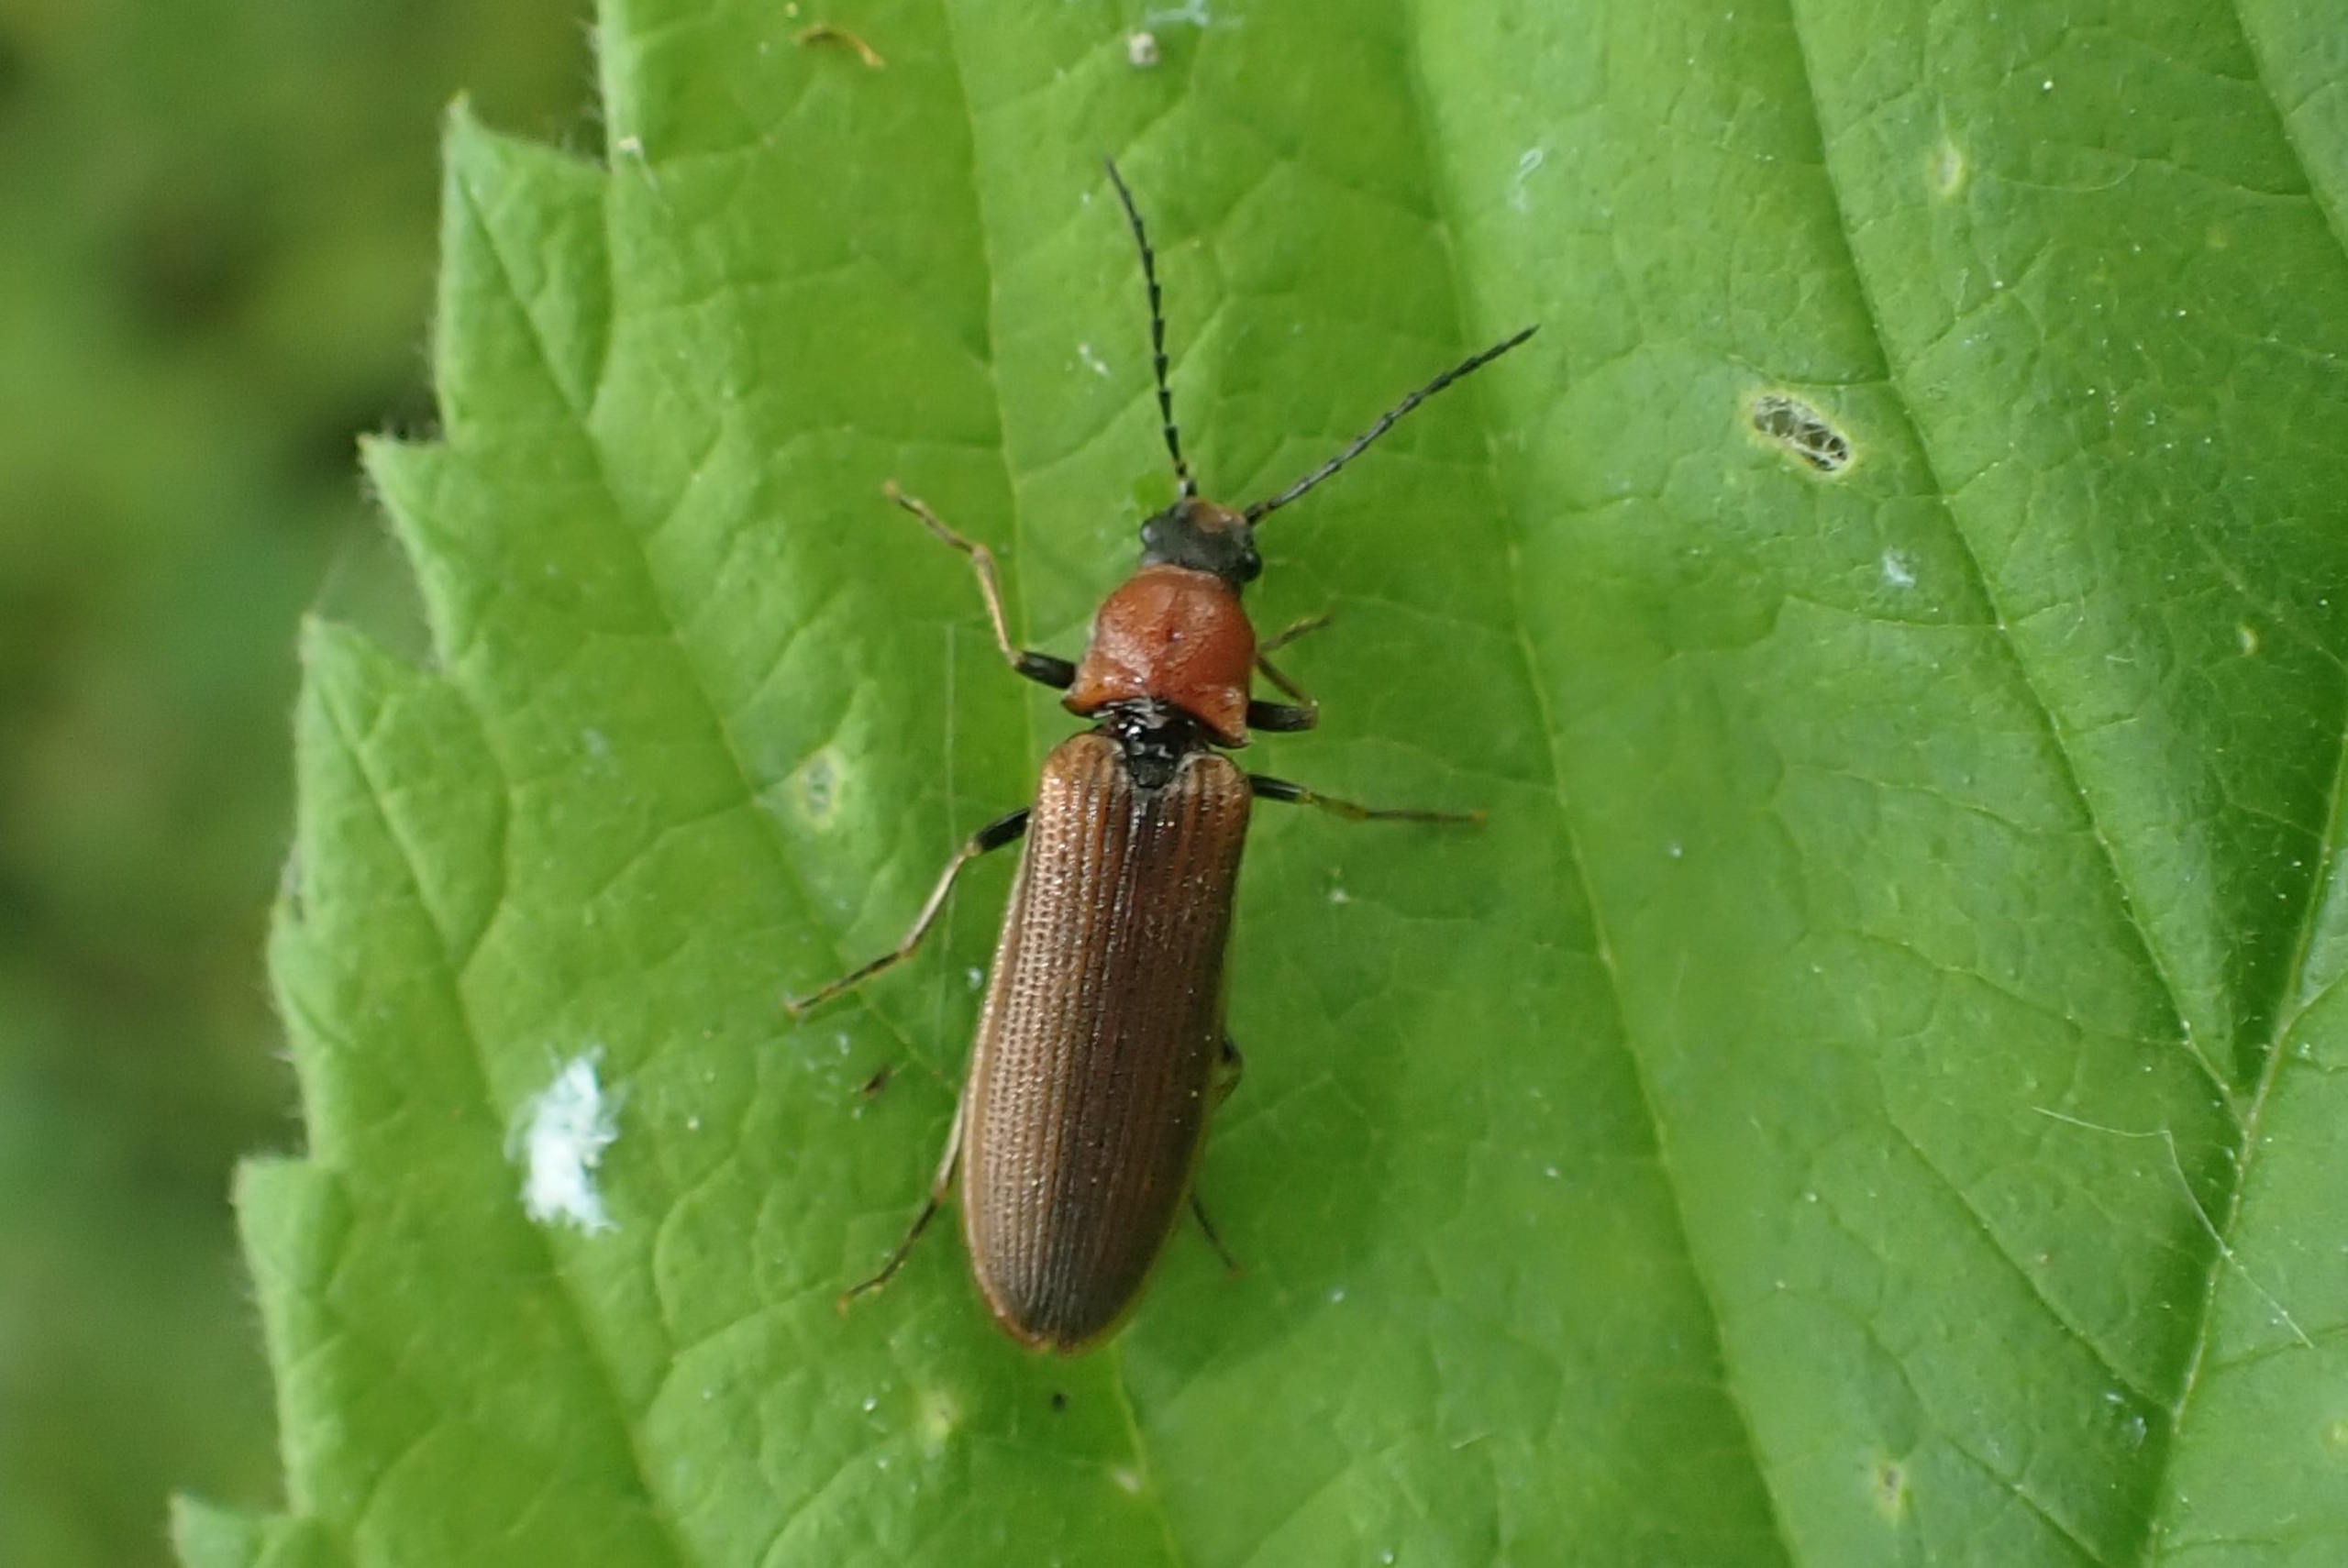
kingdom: Animalia
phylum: Arthropoda
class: Insecta
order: Coleoptera
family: Elateridae
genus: Denticollis
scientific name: Denticollis linearis
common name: Almindelig sirsmælder
